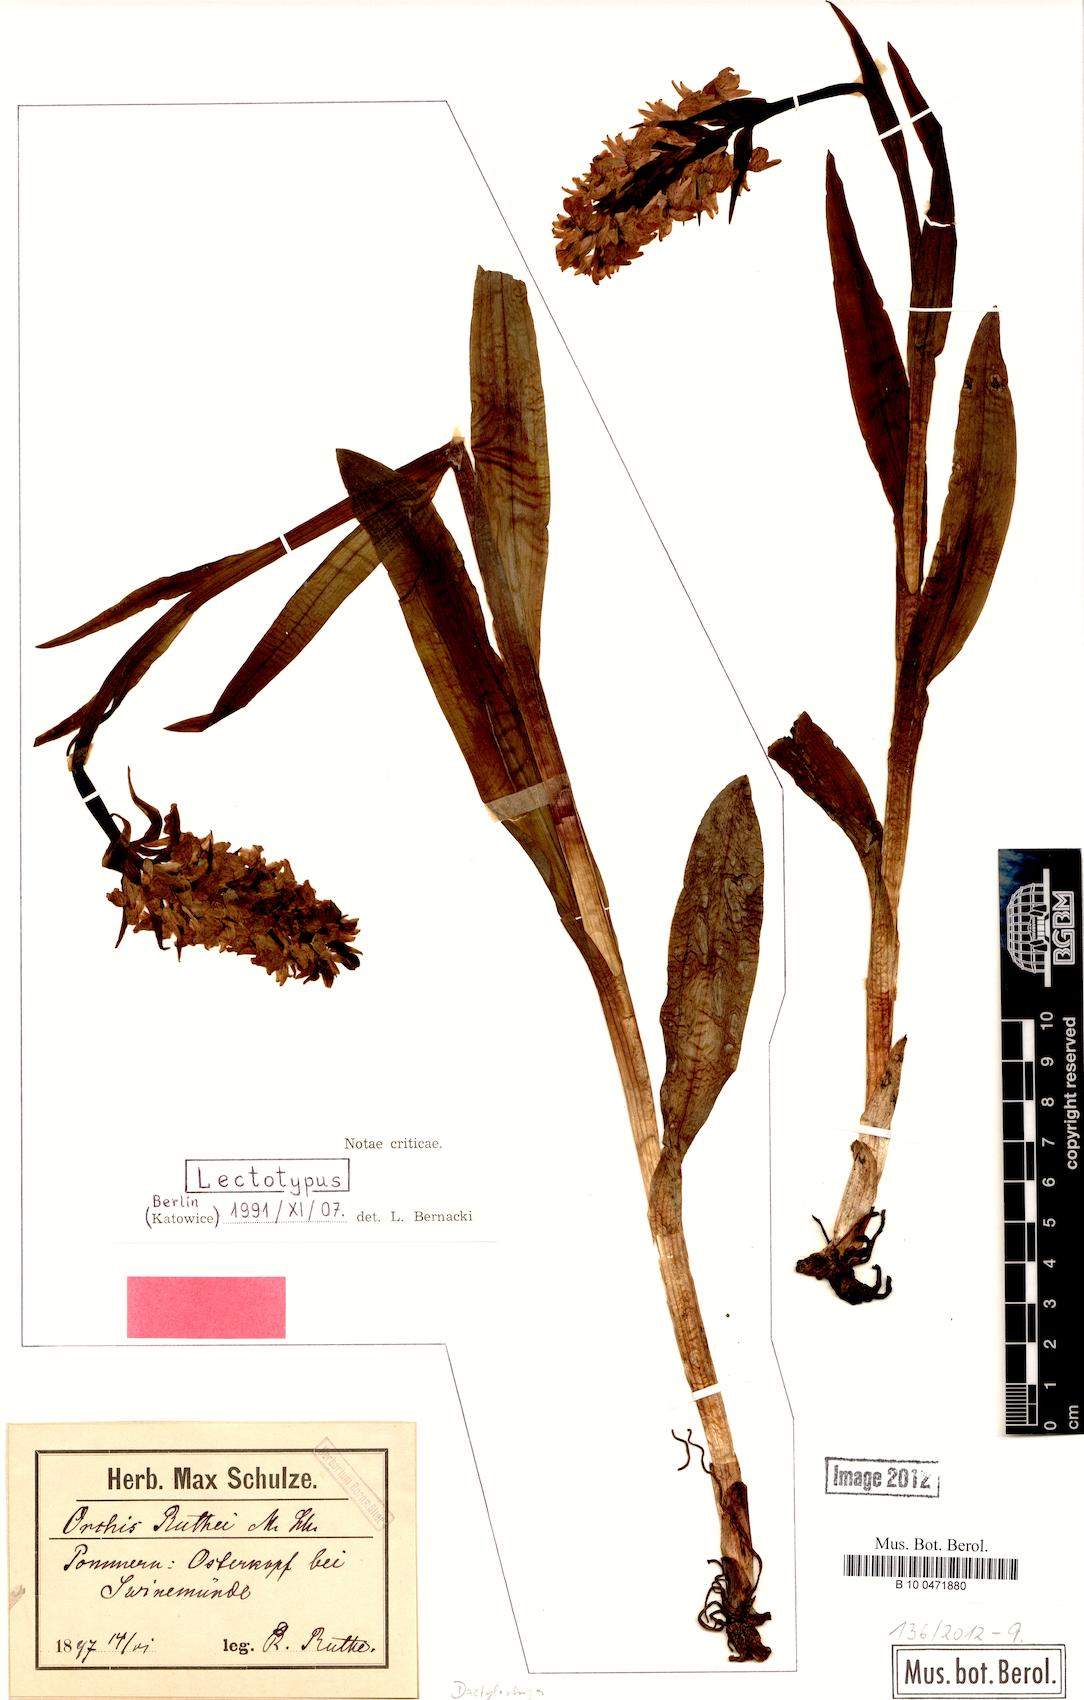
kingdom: Plantae
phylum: Tracheophyta
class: Liliopsida
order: Asparagales
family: Orchidaceae
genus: Dactylorhiza
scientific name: Dactylorhiza kerneriorum
